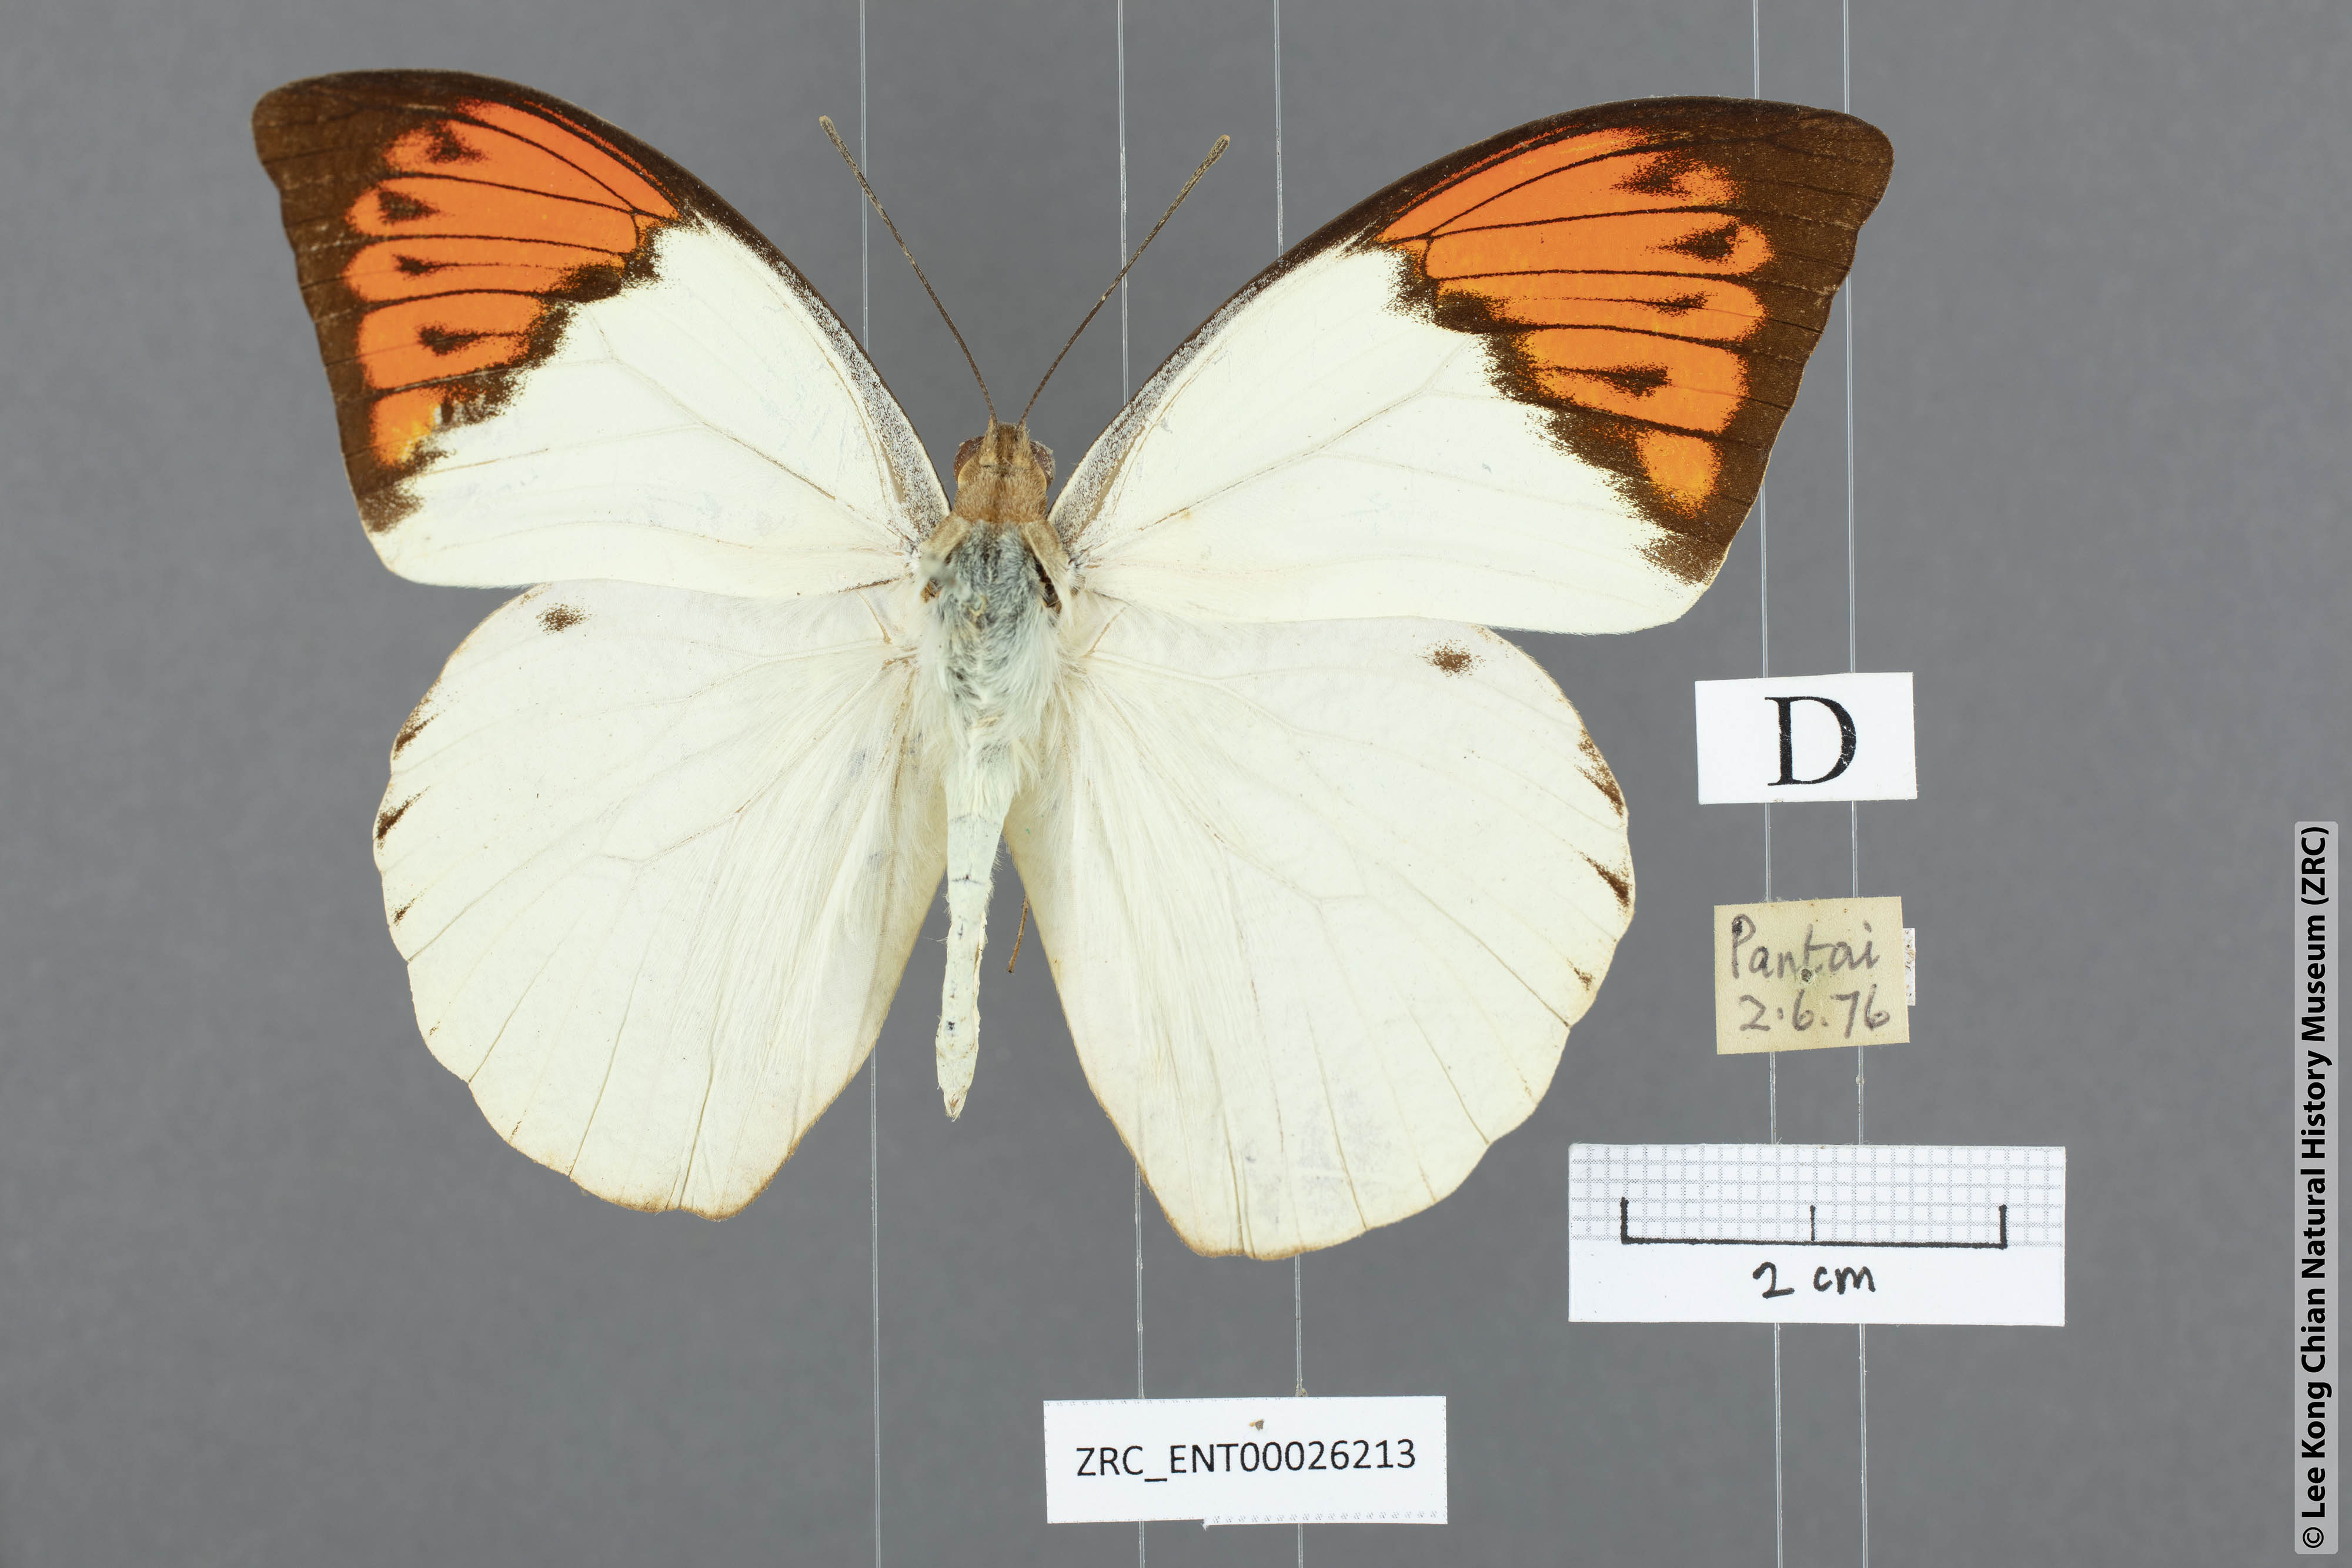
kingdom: Animalia
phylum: Arthropoda
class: Insecta
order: Lepidoptera
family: Pieridae
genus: Hebomoia
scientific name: Hebomoia glaucippe
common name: Great orange tip
